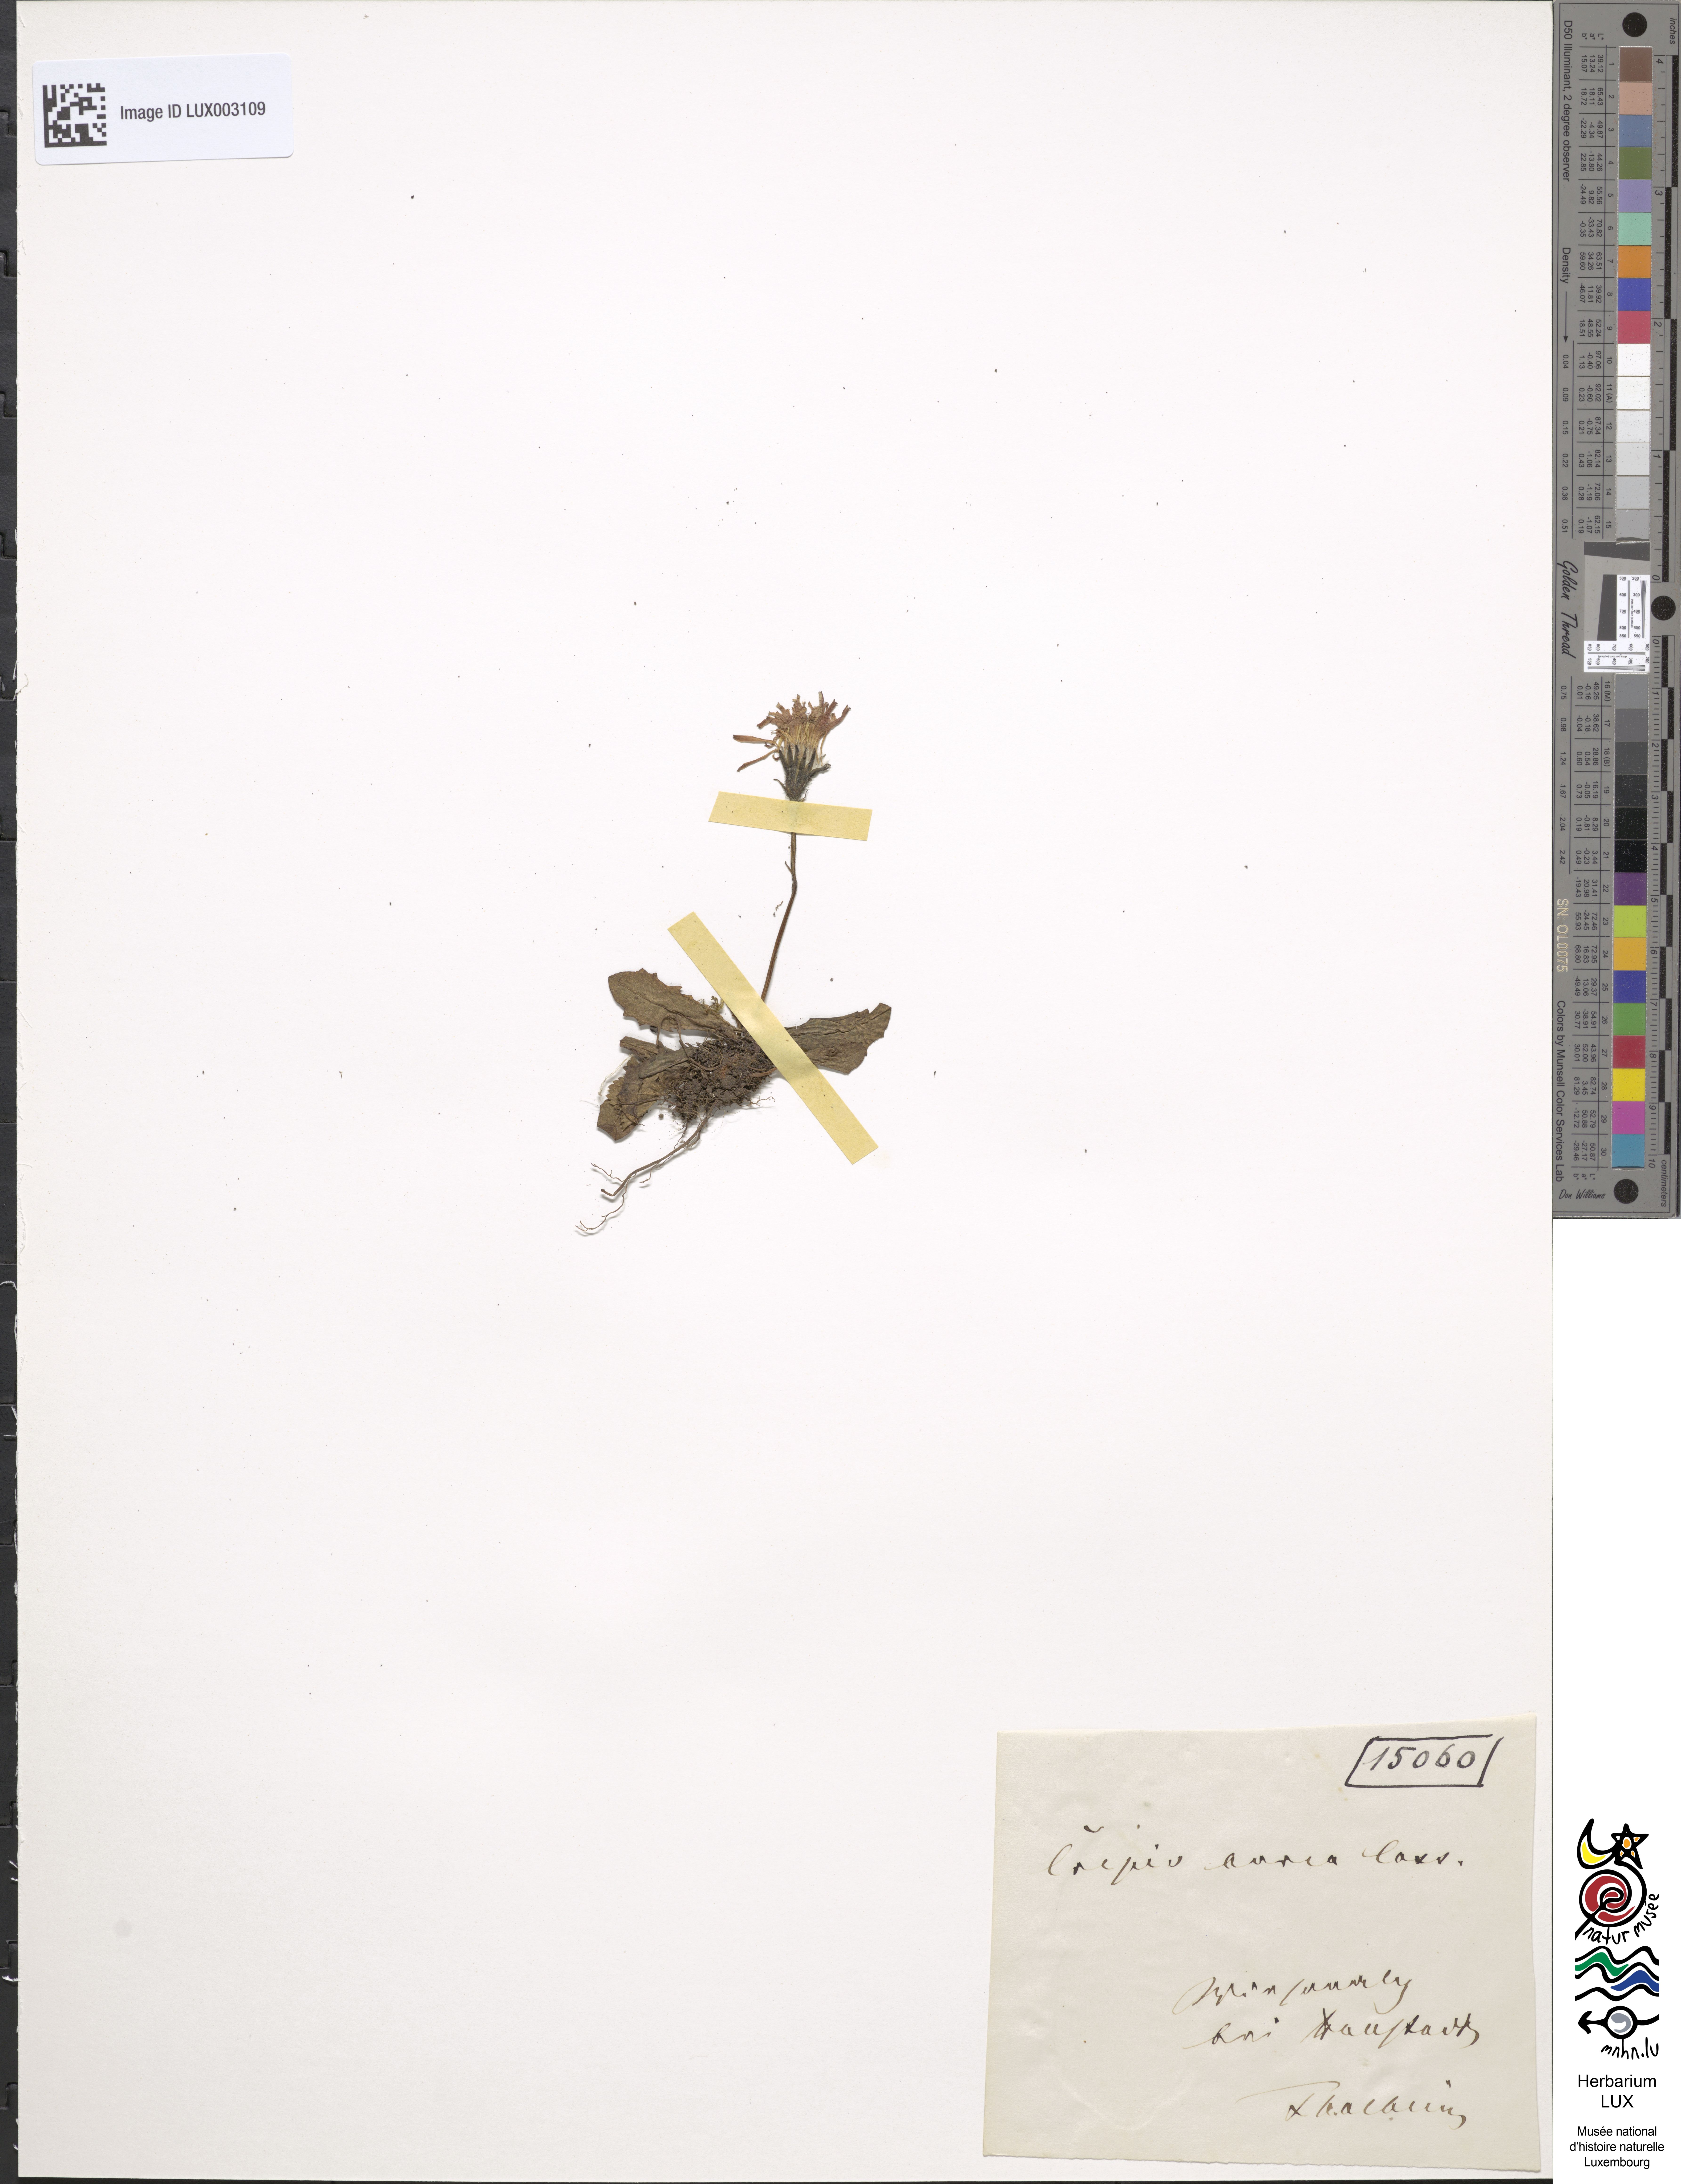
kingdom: Plantae
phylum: Tracheophyta
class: Magnoliopsida
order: Asterales
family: Asteraceae
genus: Crepis
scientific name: Crepis aurea
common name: Golden hawk's-beard
